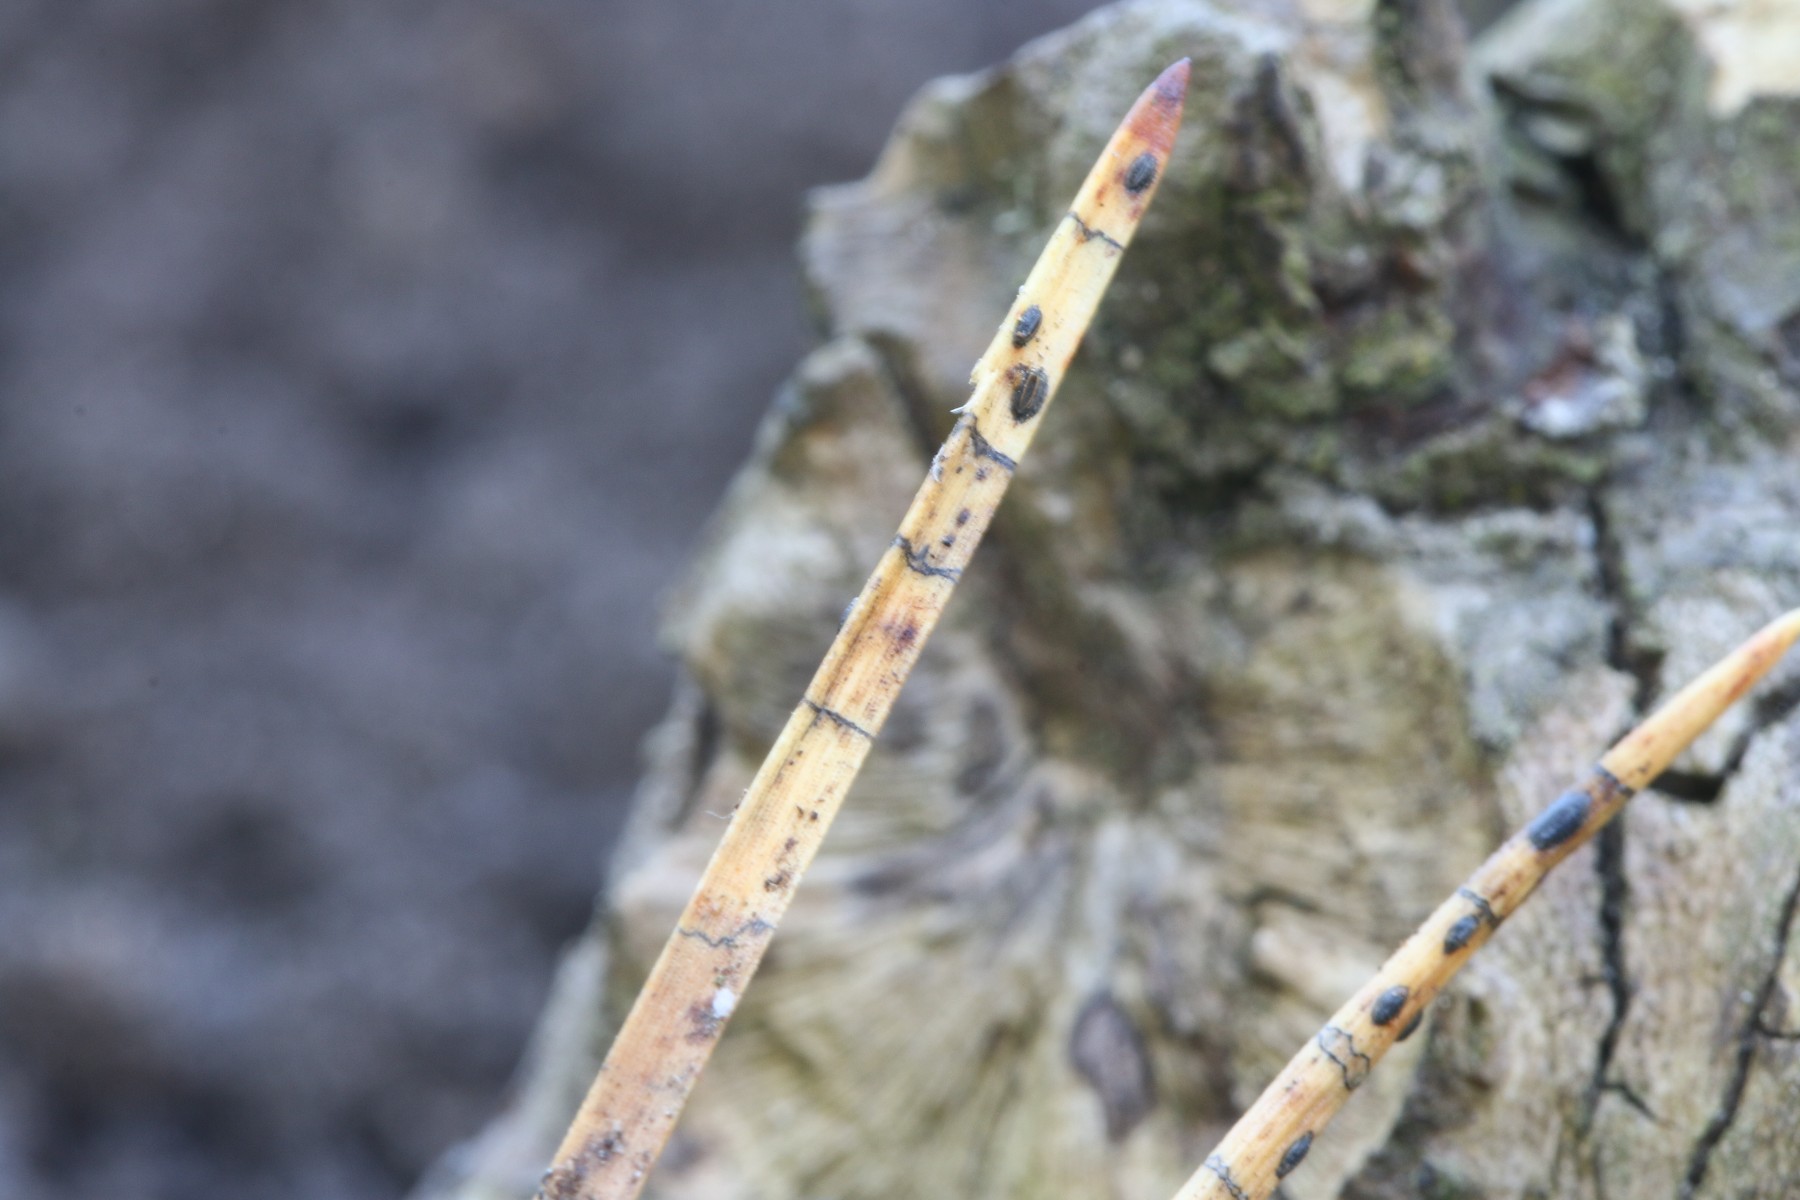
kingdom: Fungi
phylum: Ascomycota
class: Leotiomycetes
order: Rhytismatales
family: Rhytismataceae
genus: Lophodermium
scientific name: Lophodermium pinastri
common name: fyrre-fureplet
